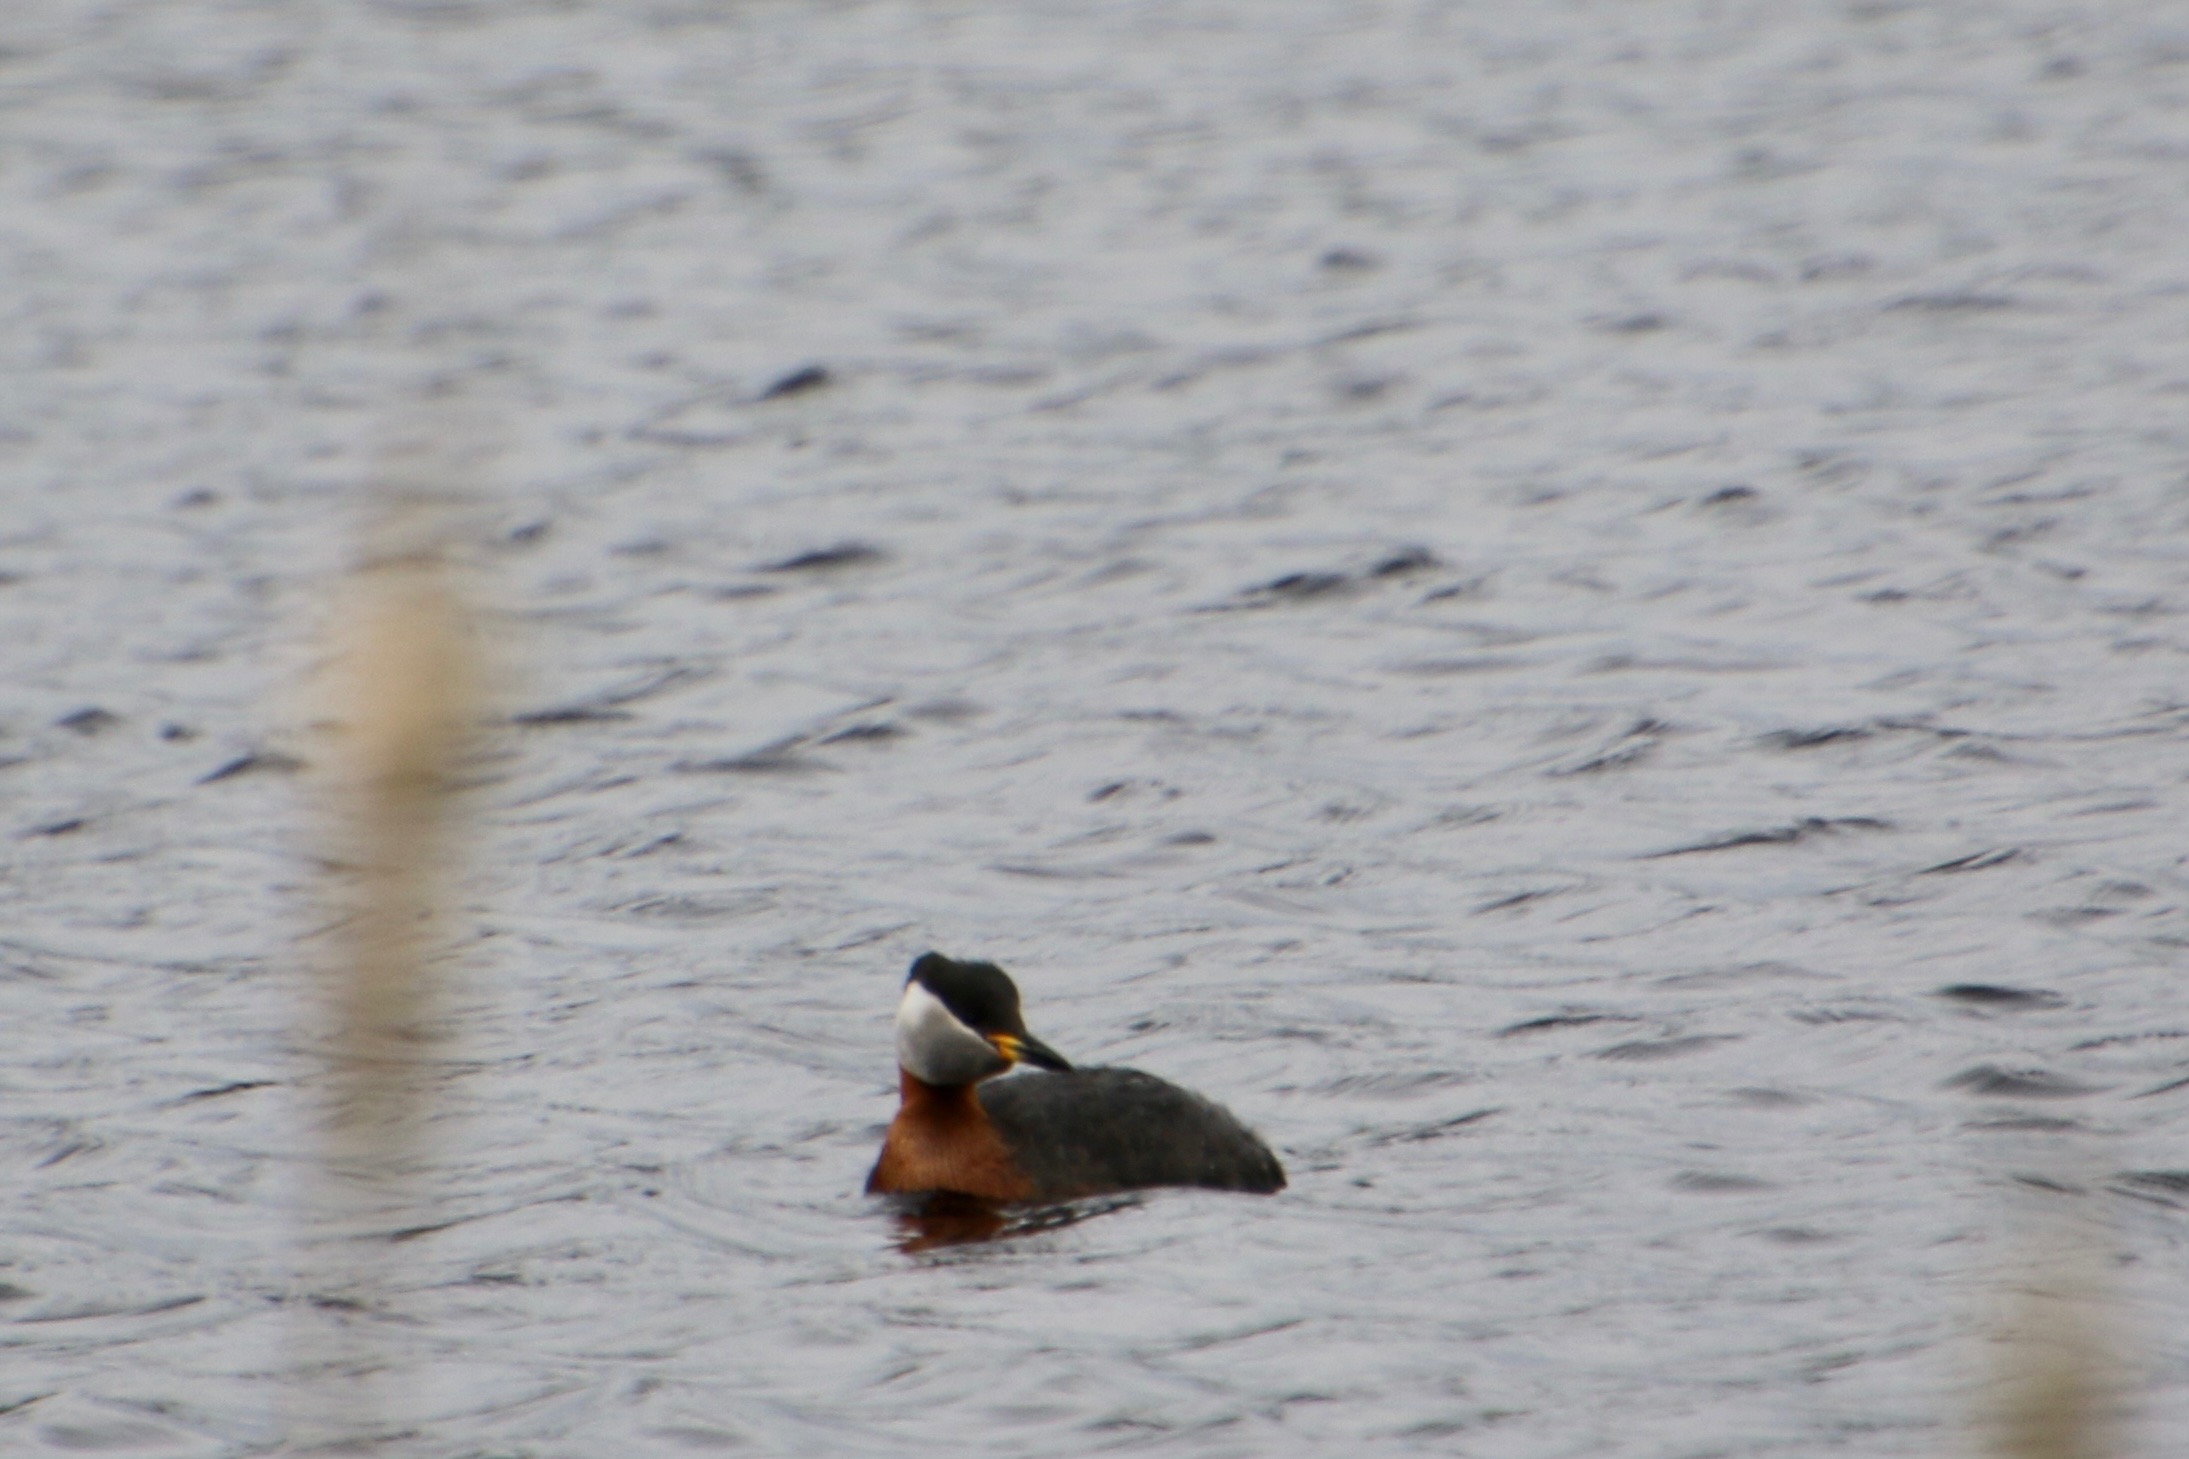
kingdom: Animalia
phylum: Chordata
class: Aves
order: Podicipediformes
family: Podicipedidae
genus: Podiceps
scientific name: Podiceps grisegena
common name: Gråstrubet lappedykker
